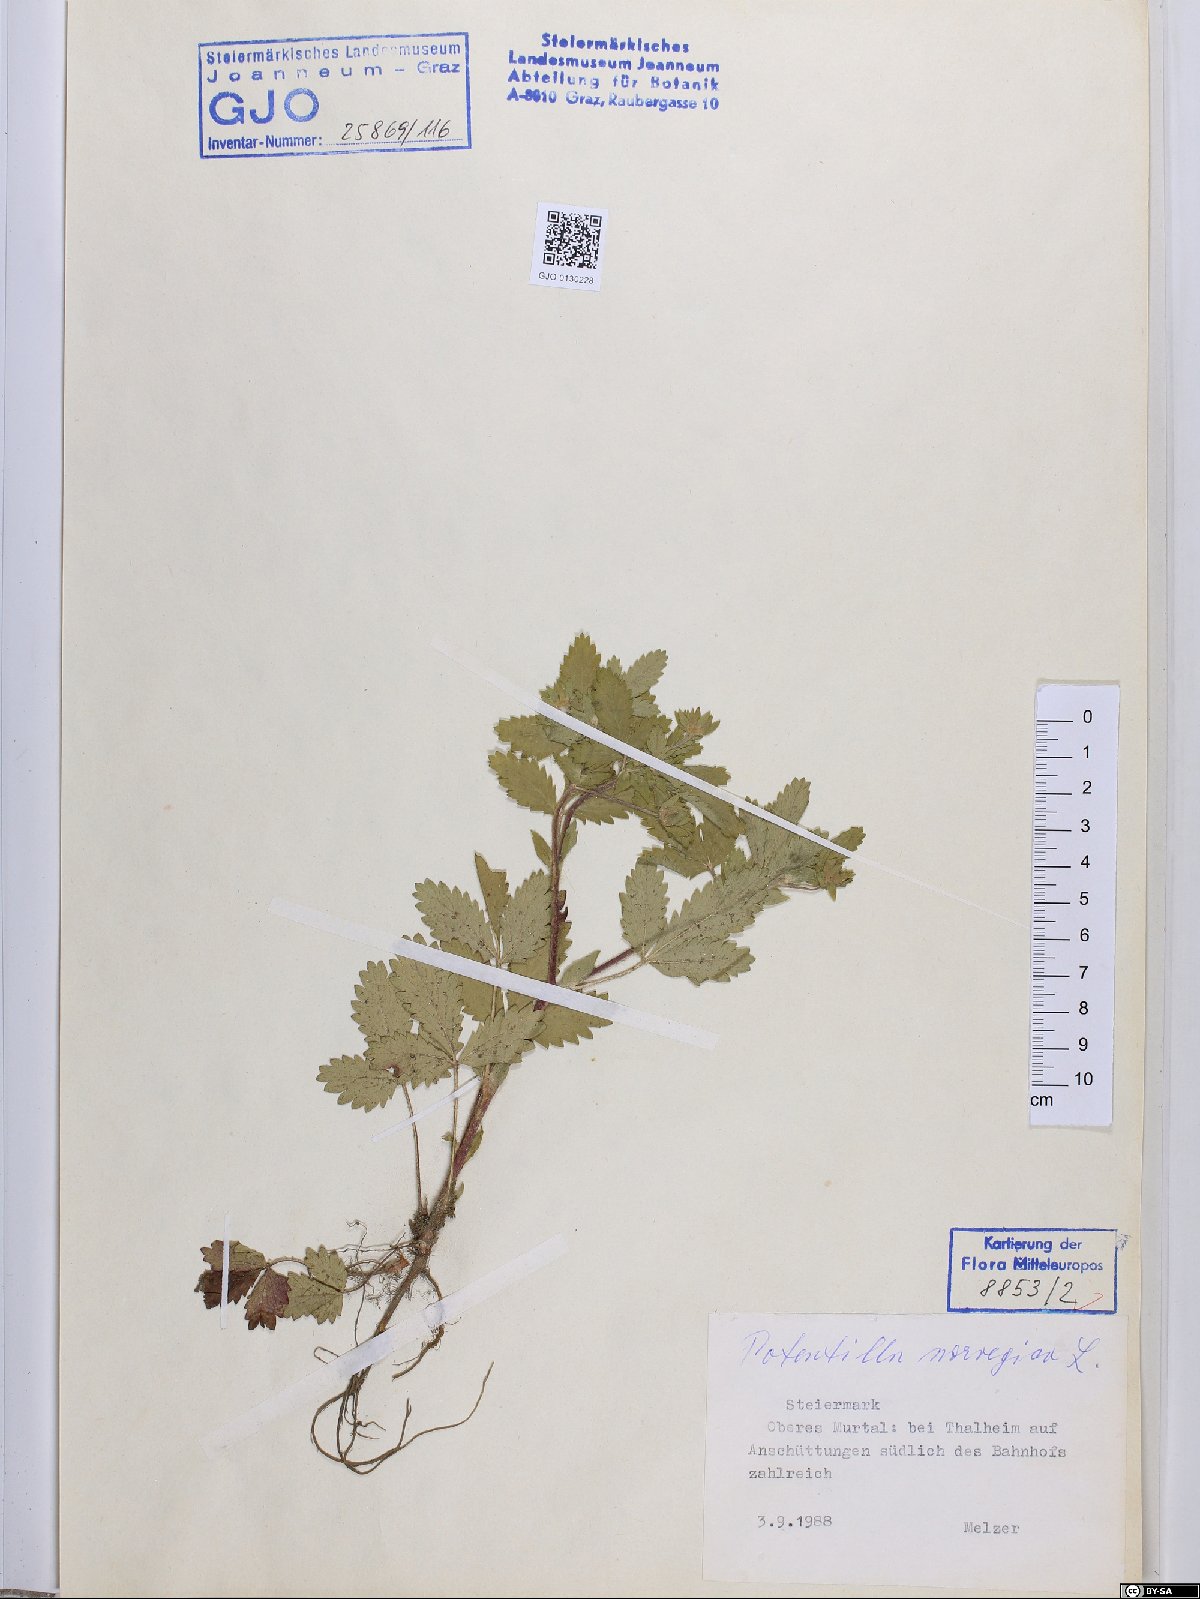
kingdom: Plantae
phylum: Tracheophyta
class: Magnoliopsida
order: Rosales
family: Rosaceae
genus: Potentilla
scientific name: Potentilla norvegica
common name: Ternate-leaved cinquefoil
